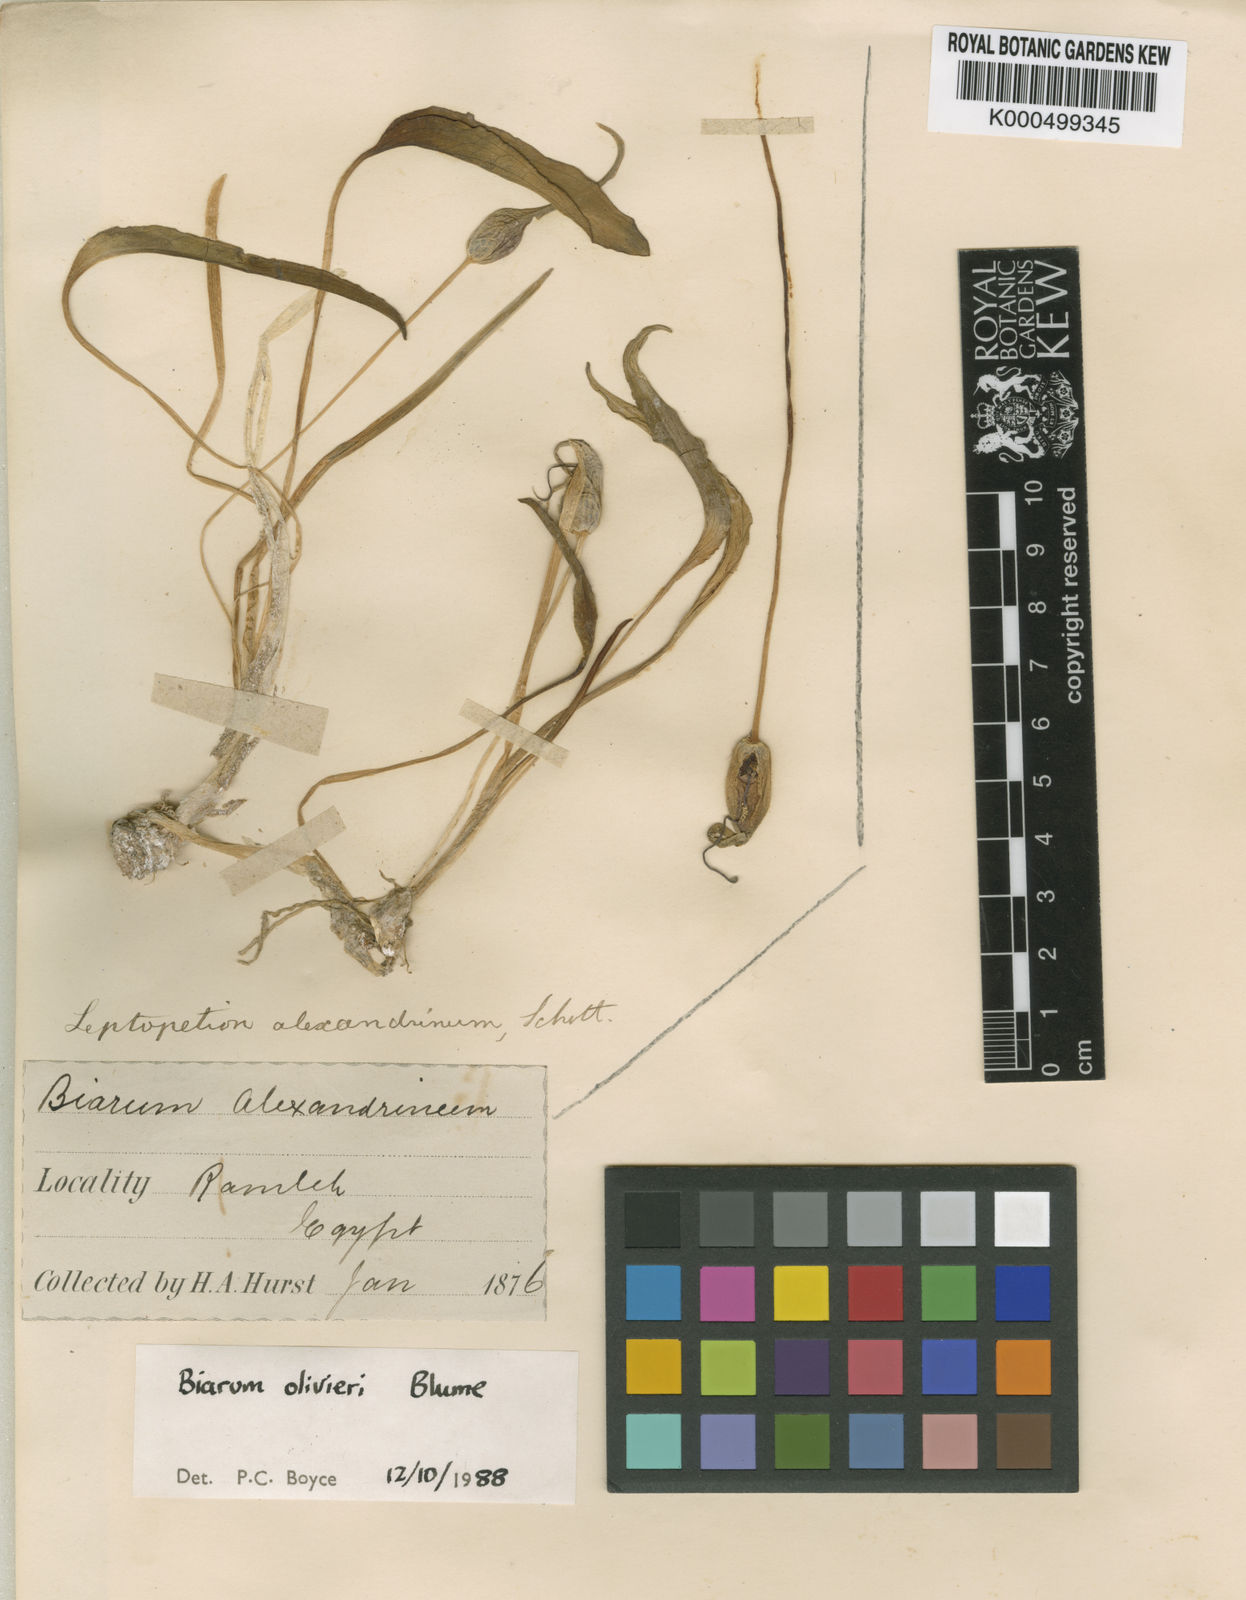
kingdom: Plantae
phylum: Tracheophyta
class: Liliopsida
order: Alismatales
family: Araceae
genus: Biarum
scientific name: Biarum olivieri
